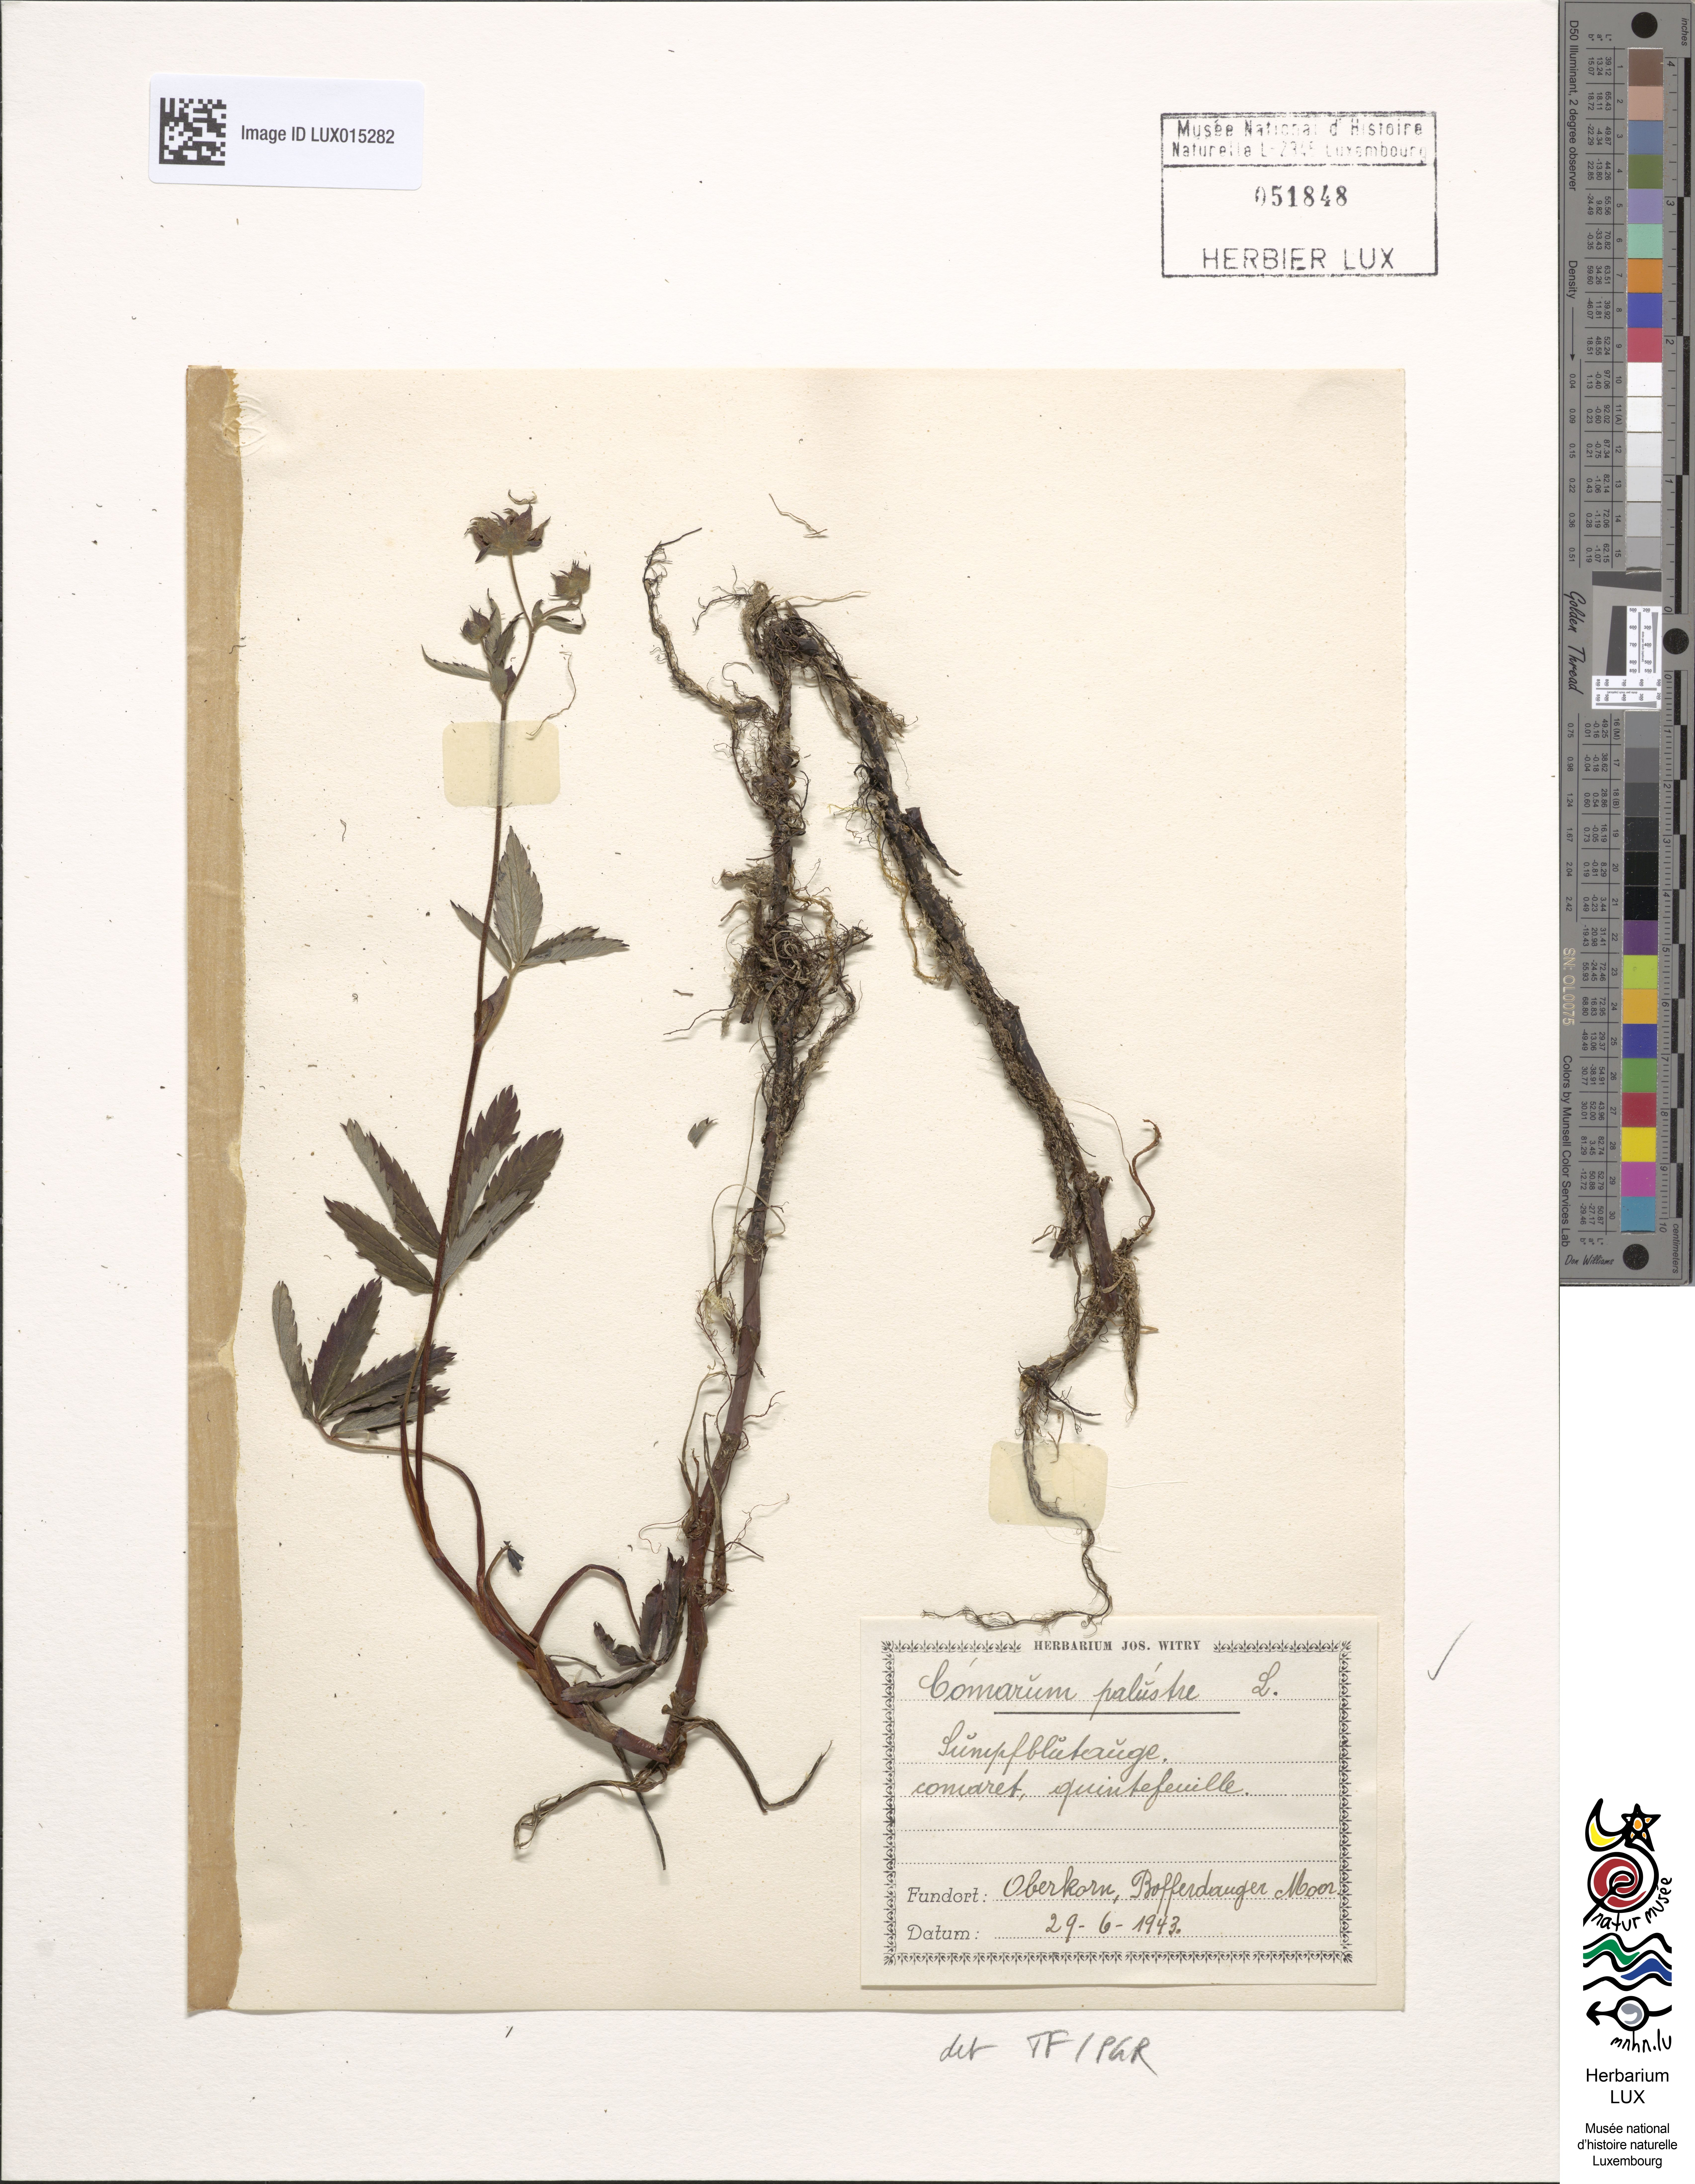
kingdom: Plantae
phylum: Tracheophyta
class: Magnoliopsida
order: Rosales
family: Rosaceae
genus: Comarum
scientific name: Comarum palustre
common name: Marsh cinquefoil
